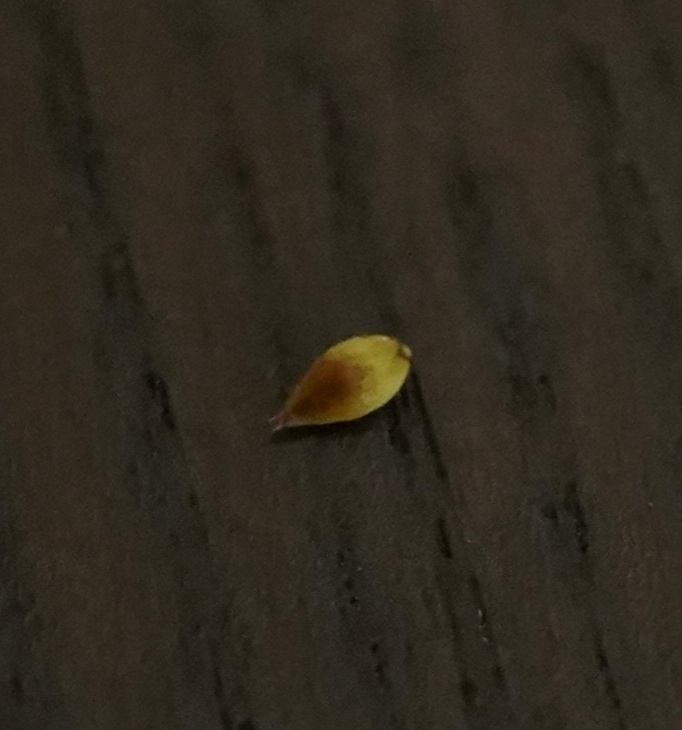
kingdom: Plantae
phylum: Tracheophyta
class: Liliopsida
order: Poales
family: Cyperaceae
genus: Carex
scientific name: Carex spicata
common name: Spidskapslet star
